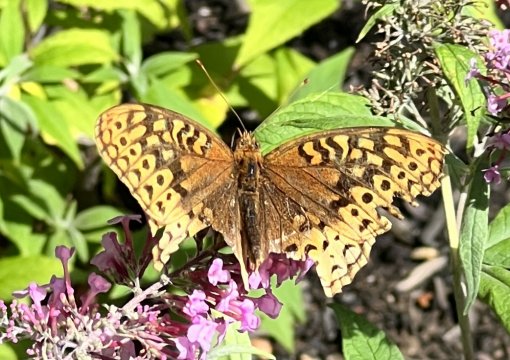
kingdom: Animalia
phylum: Arthropoda
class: Insecta
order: Lepidoptera
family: Nymphalidae
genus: Speyeria
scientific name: Speyeria cybele
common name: Great Spangled Fritillary
